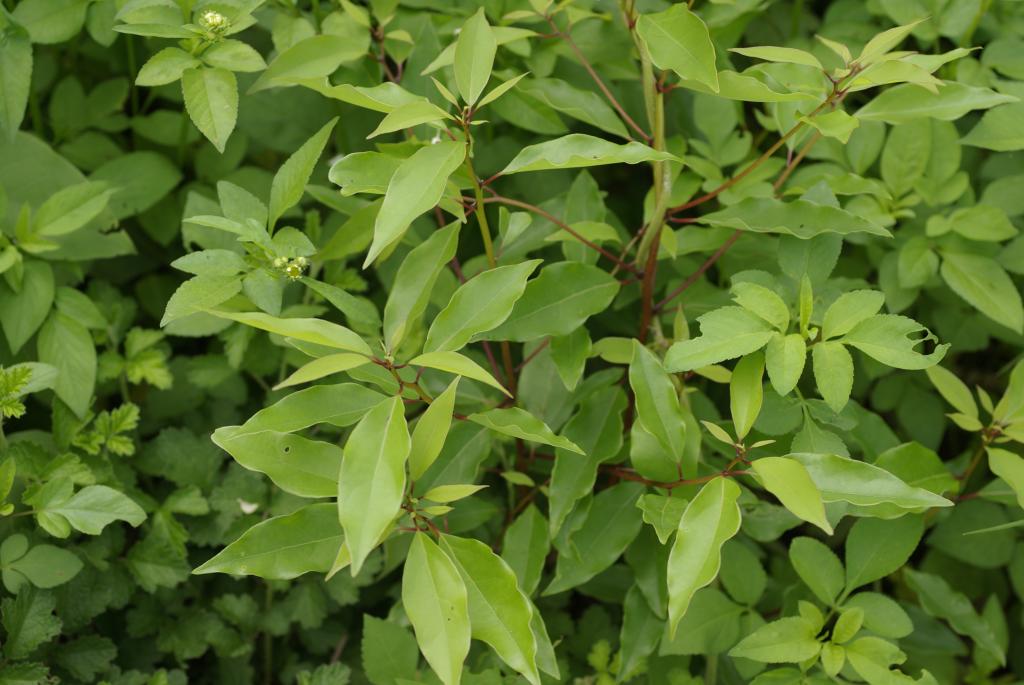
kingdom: Plantae
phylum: Tracheophyta
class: Magnoliopsida
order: Laurales
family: Lauraceae
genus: Cinnamomum
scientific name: Cinnamomum camphora
